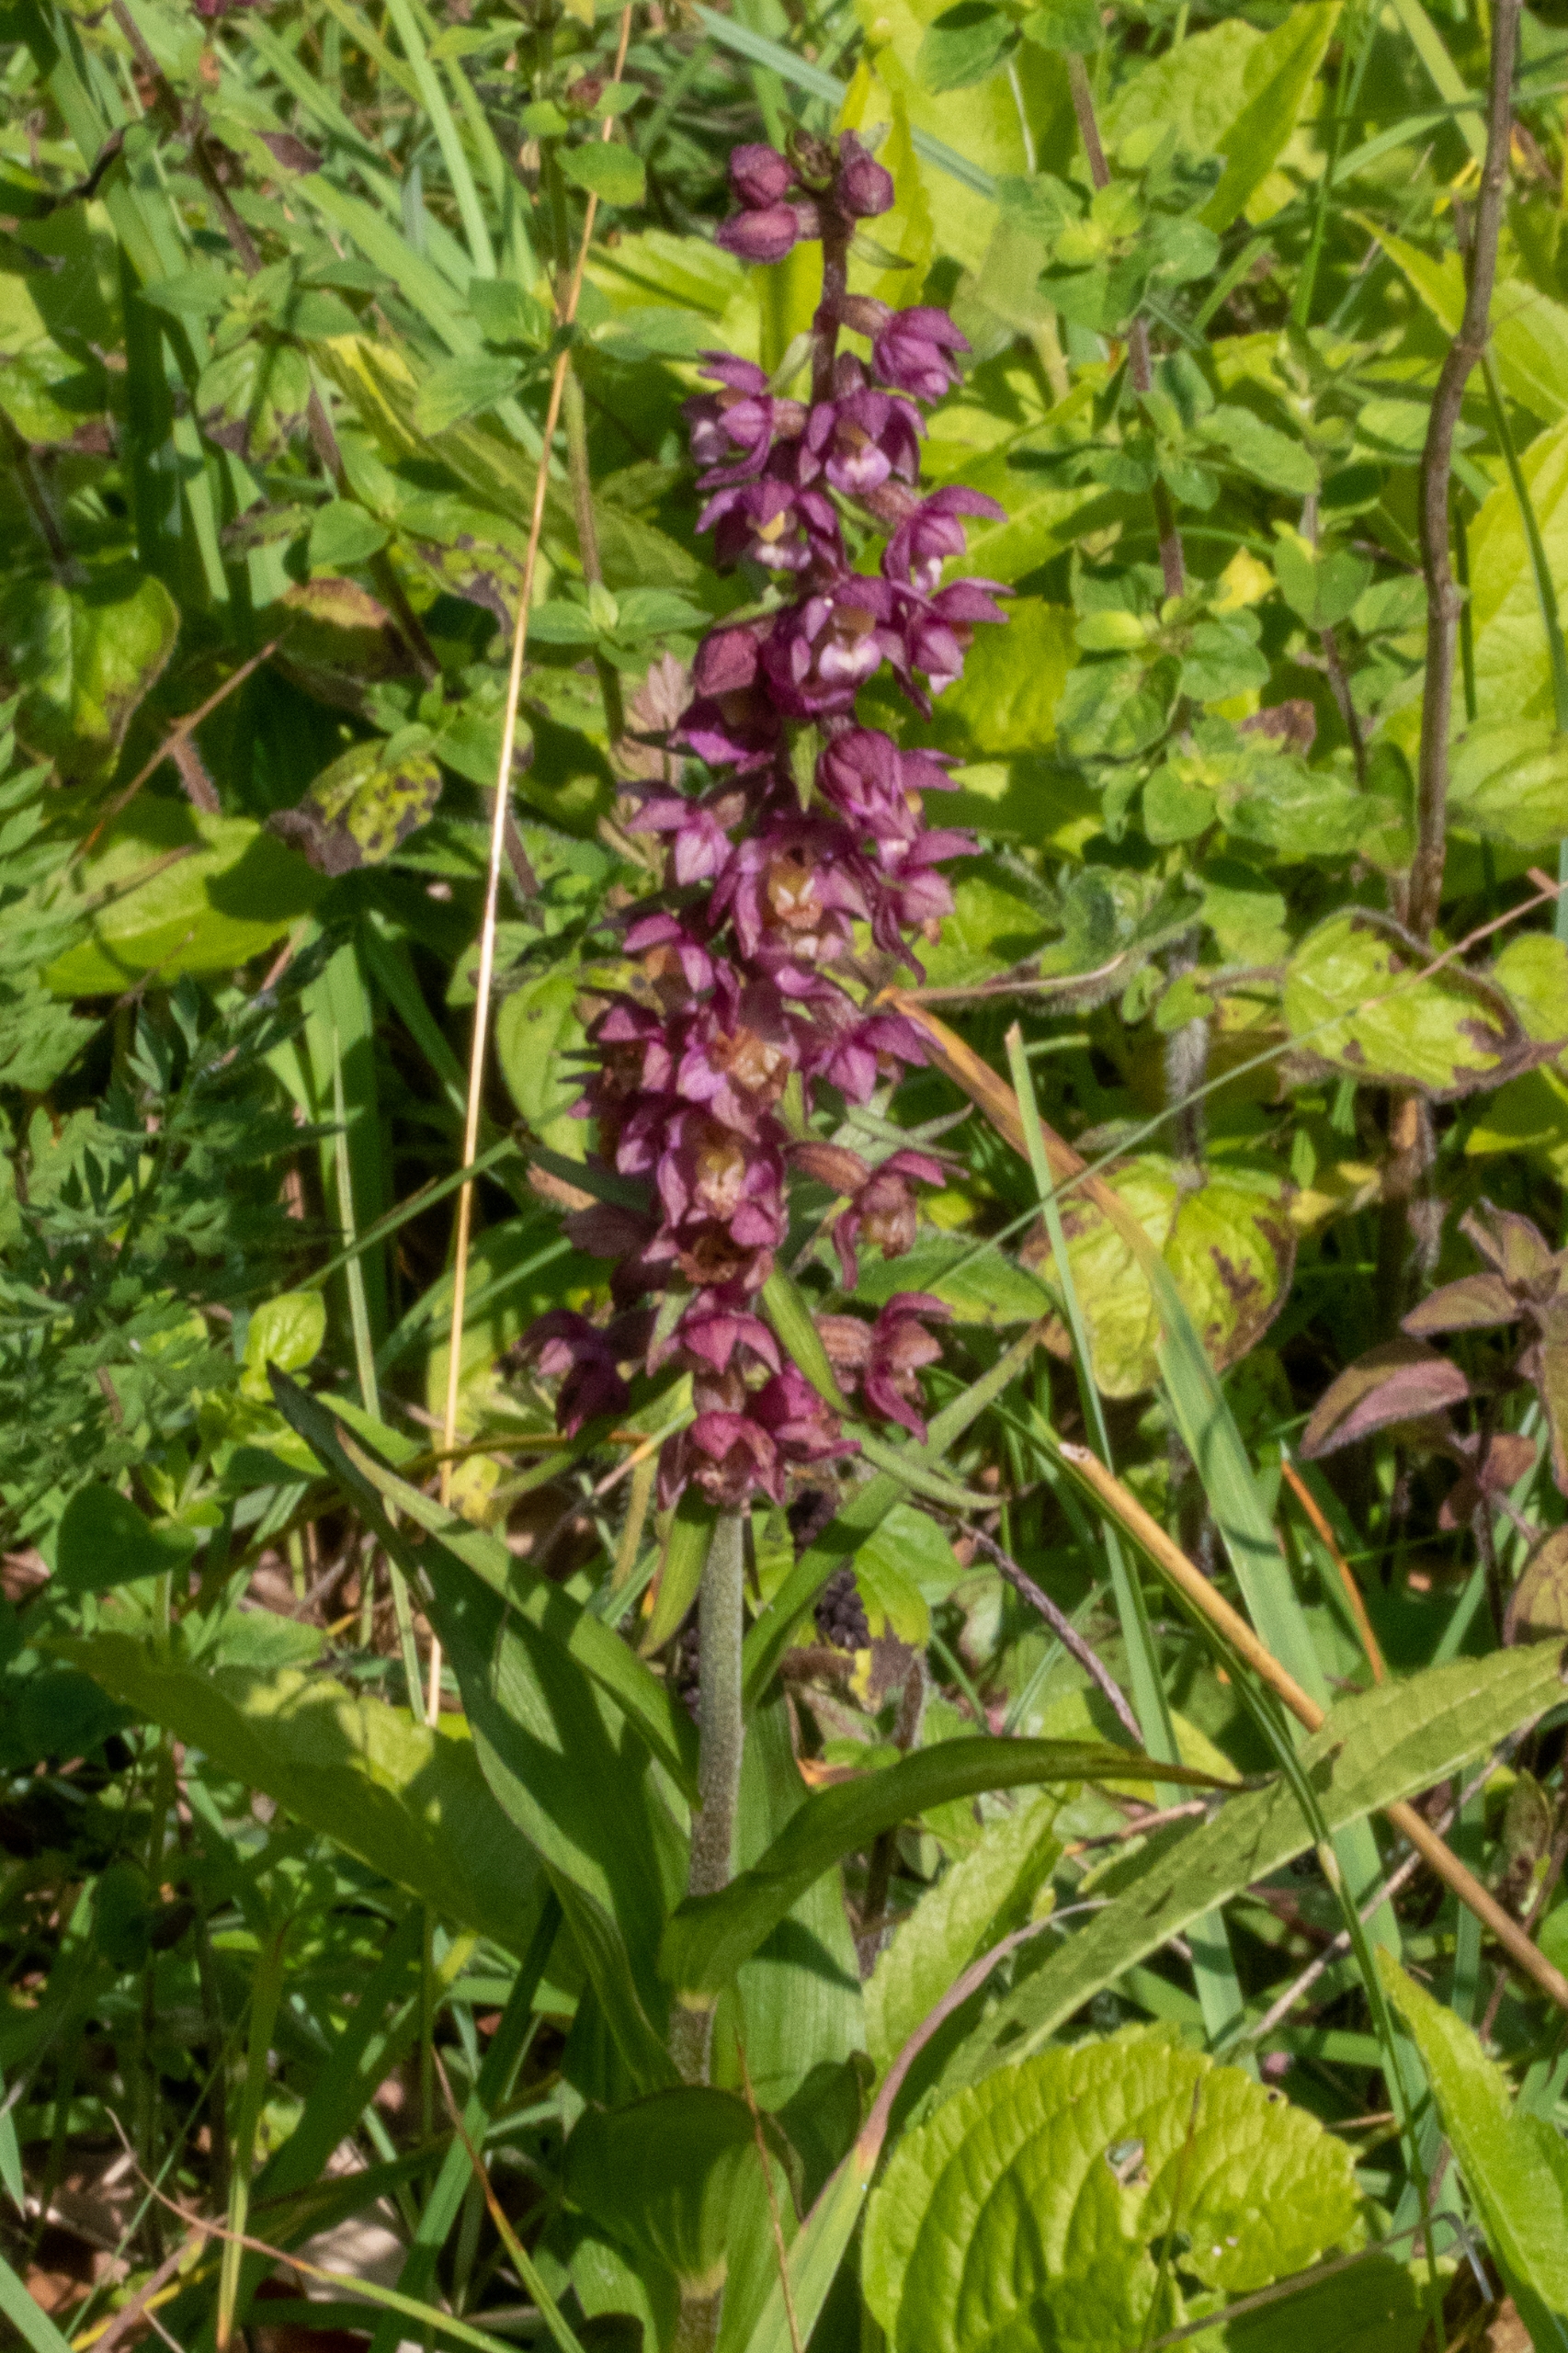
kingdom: Plantae
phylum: Tracheophyta
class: Liliopsida
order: Asparagales
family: Orchidaceae
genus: Epipactis
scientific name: Epipactis atrorubens
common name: Rød hullæbe
